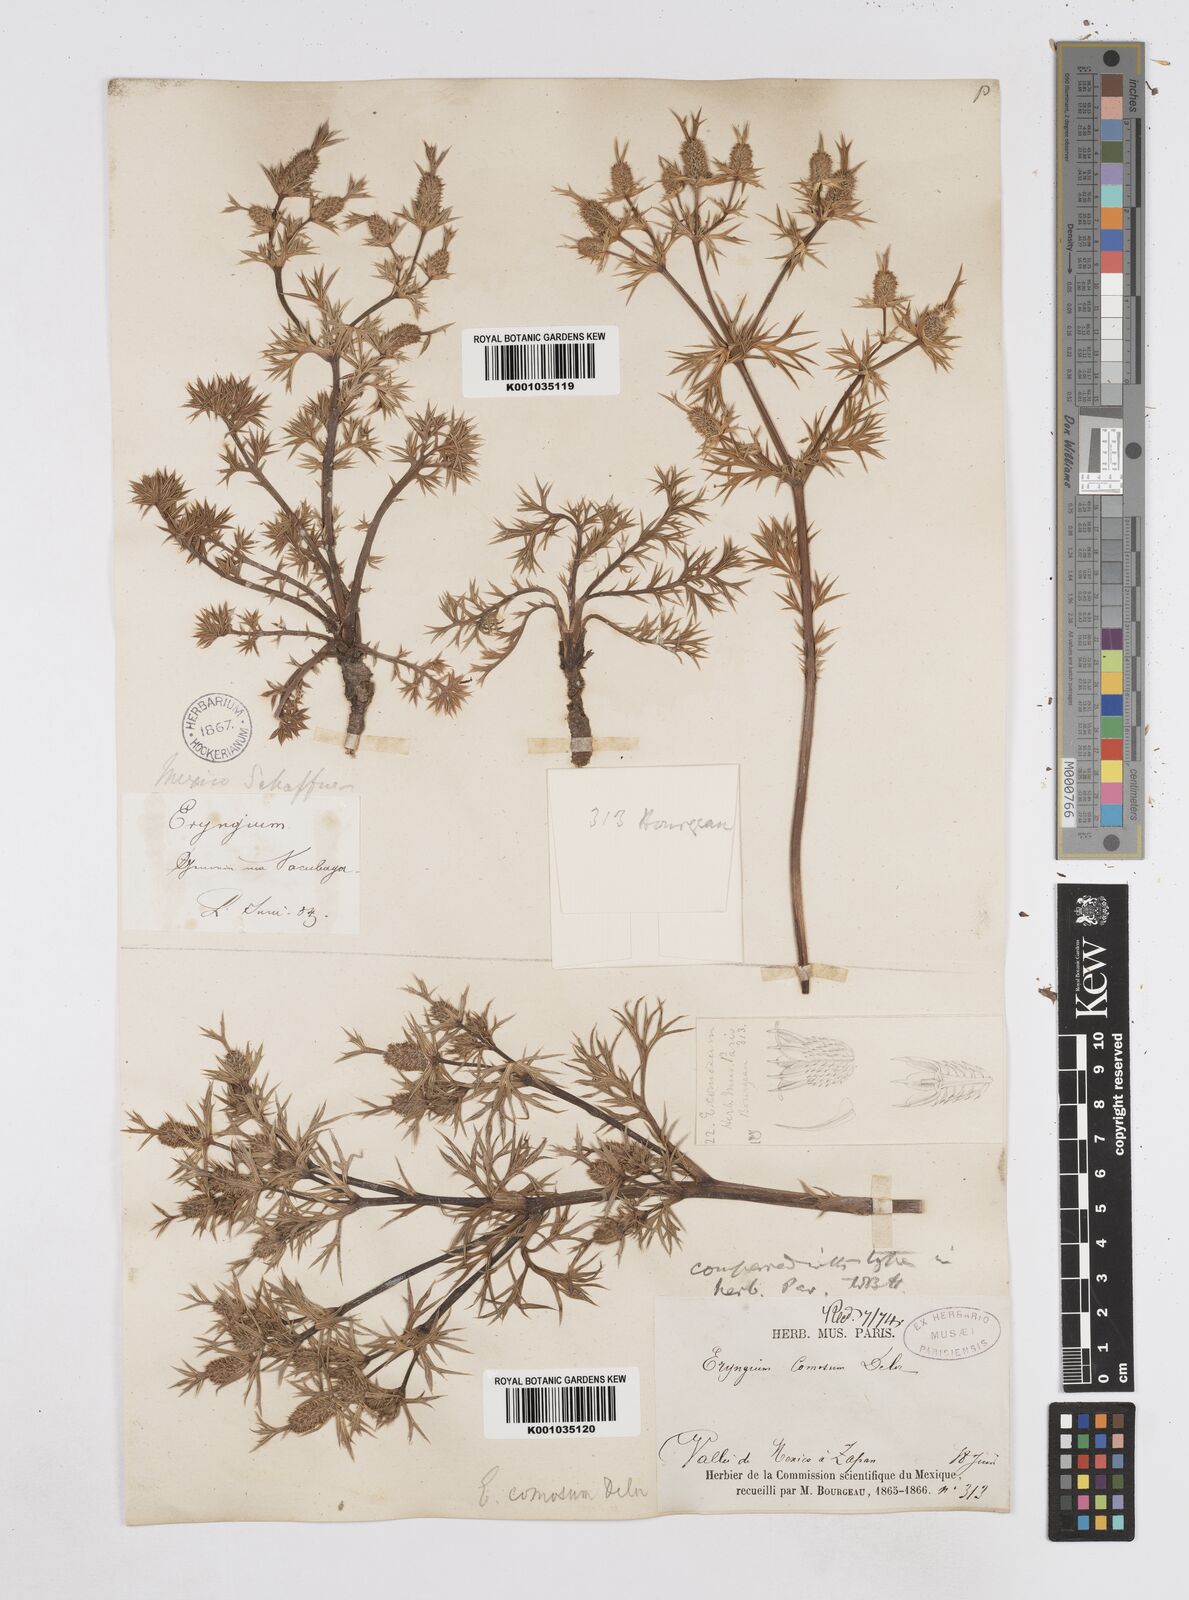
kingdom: Plantae
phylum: Tracheophyta
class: Magnoliopsida
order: Apiales
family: Apiaceae
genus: Eryngium
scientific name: Eryngium comosum
